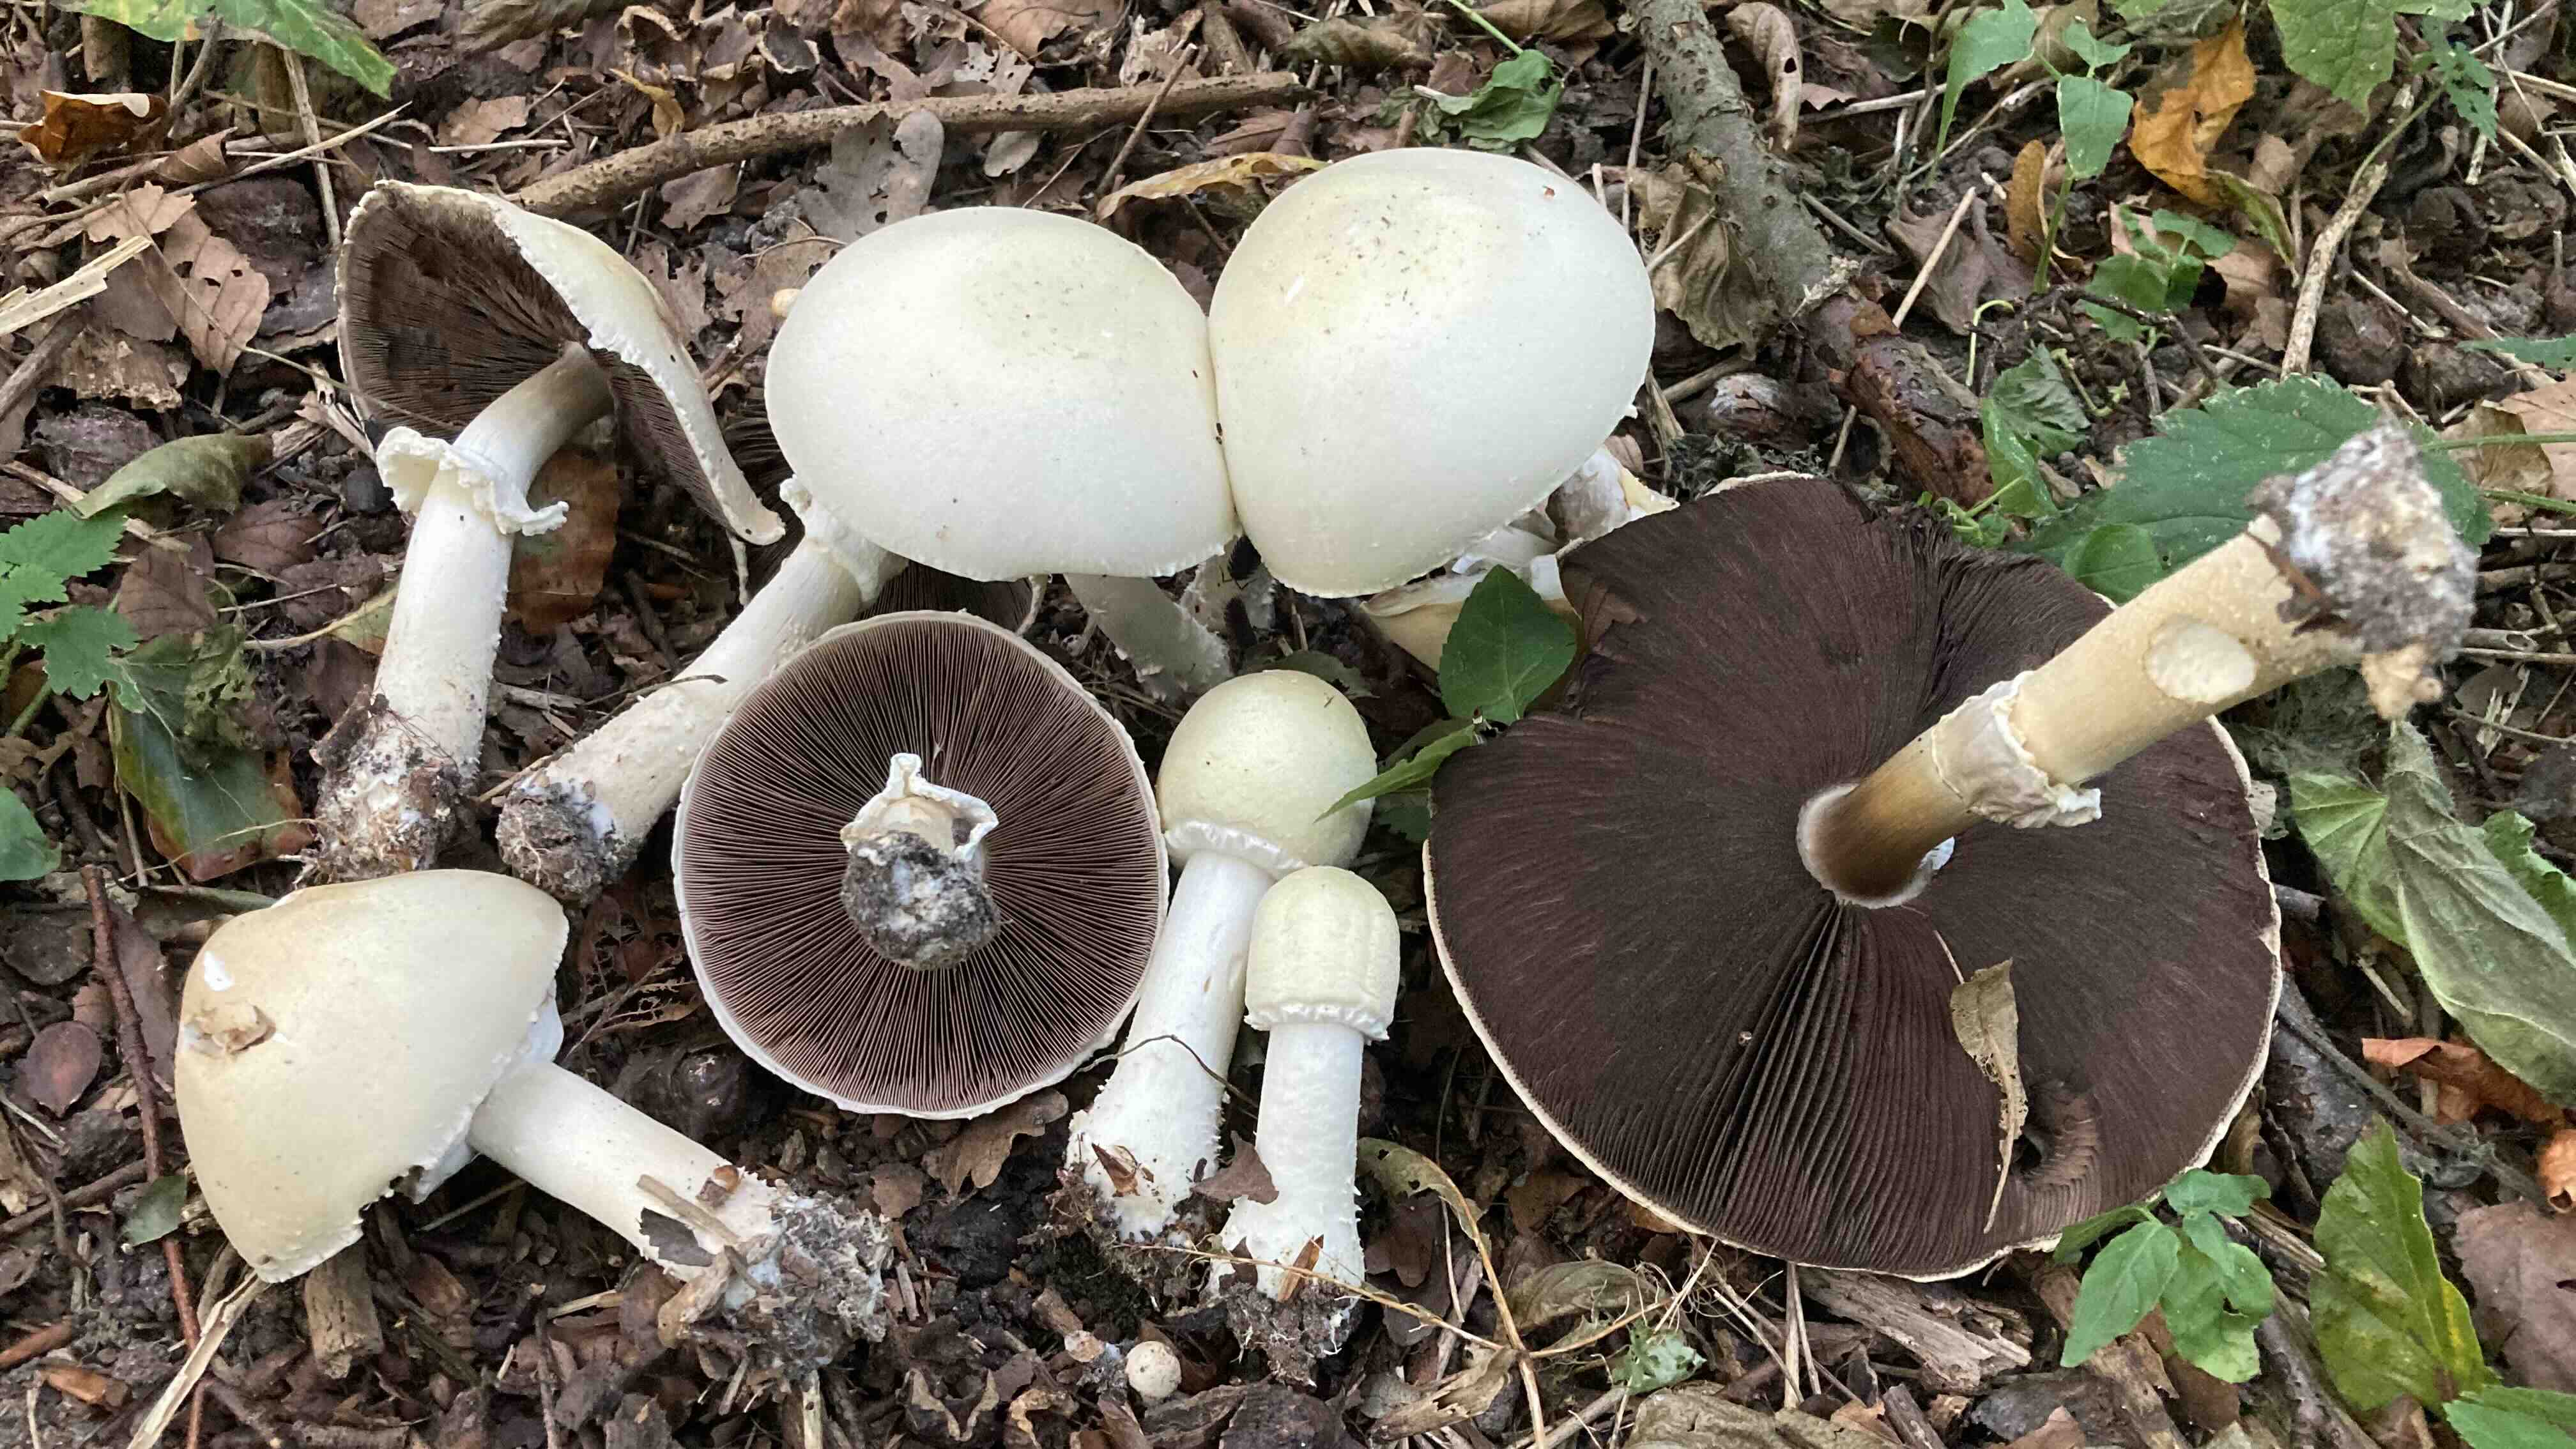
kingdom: Fungi
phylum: Basidiomycota
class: Agaricomycetes
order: Agaricales
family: Agaricaceae
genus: Agaricus
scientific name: Agaricus arvensis
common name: ager-champignon
